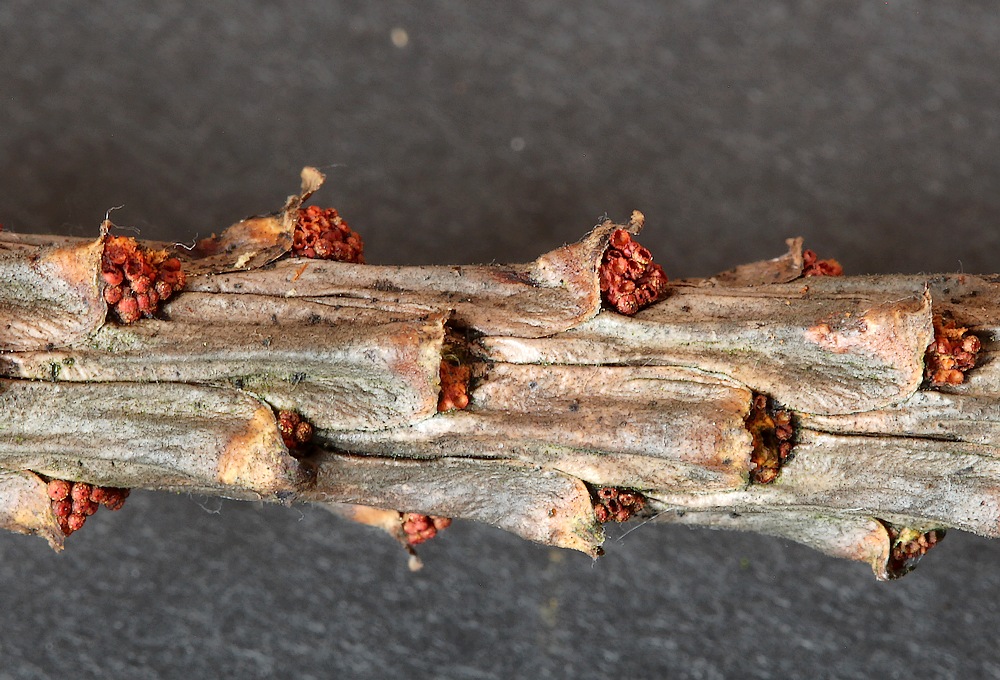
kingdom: Fungi
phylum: Ascomycota
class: Sordariomycetes
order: Hypocreales
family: Nectriaceae
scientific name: Nectriaceae
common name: cinnobersvampfamilien
